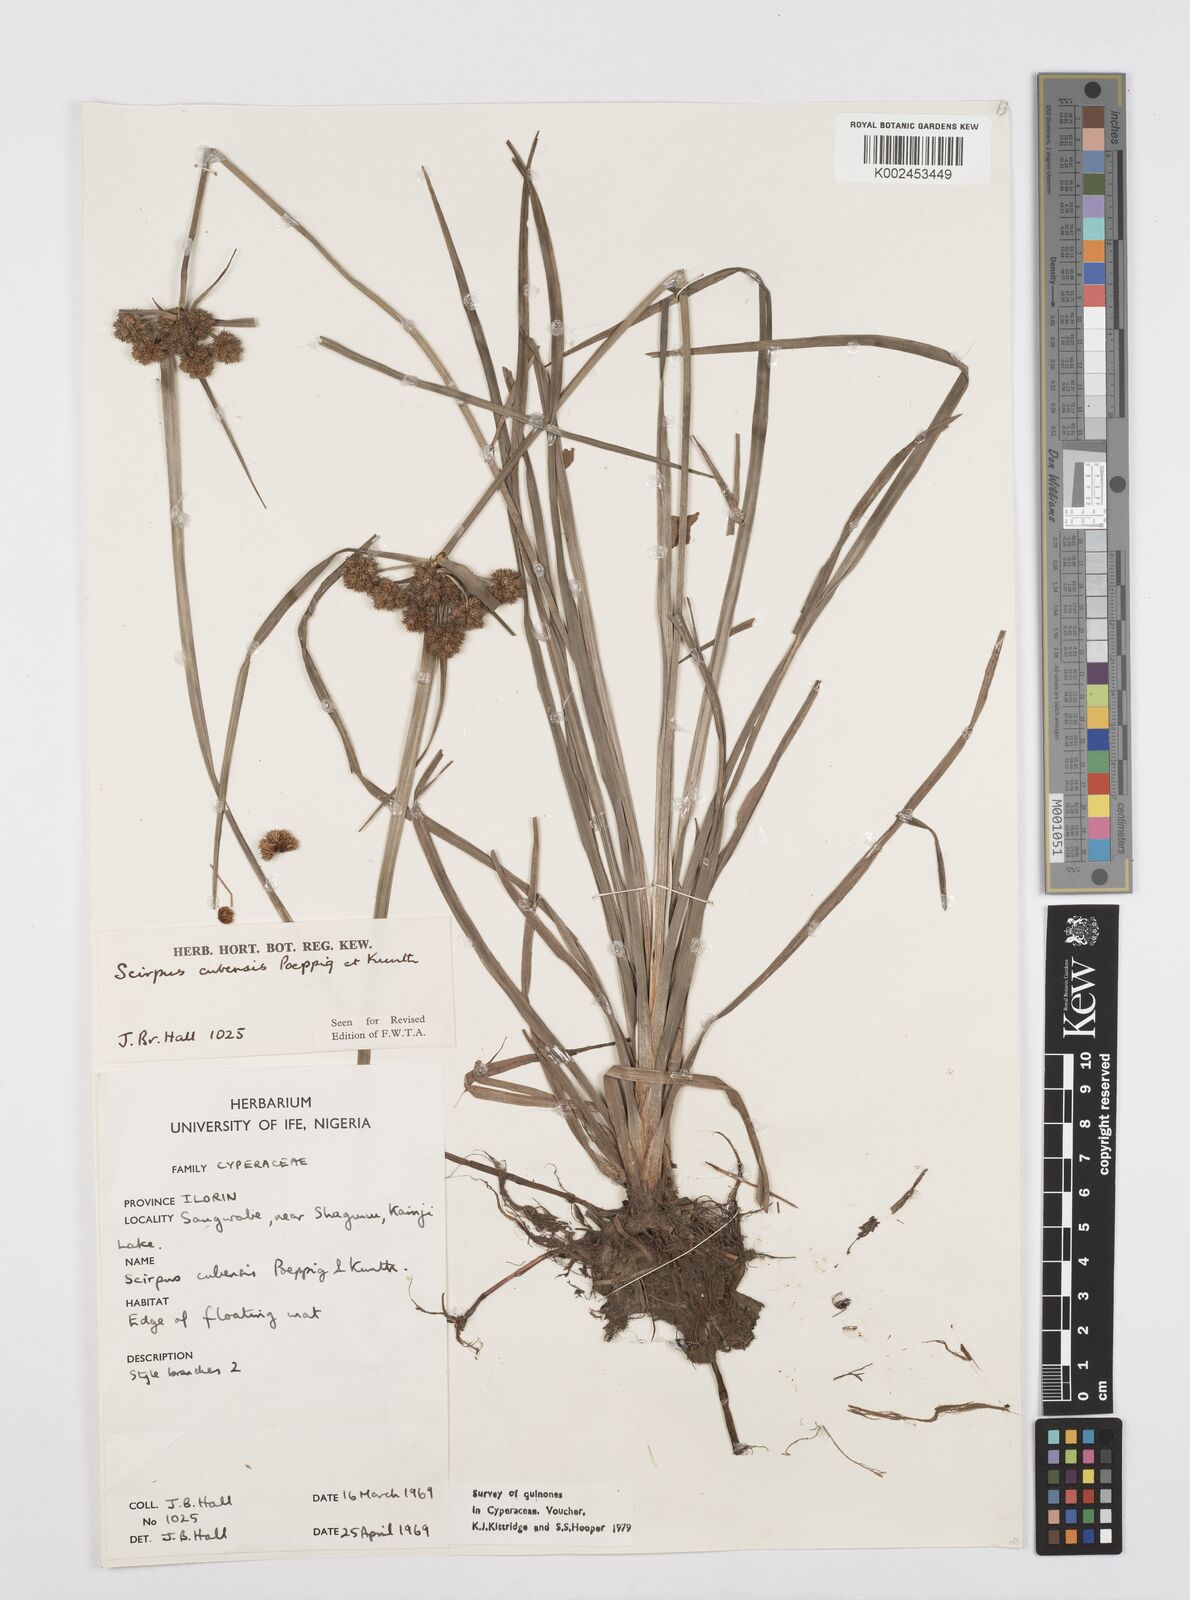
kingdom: Plantae
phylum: Tracheophyta
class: Liliopsida
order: Poales
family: Cyperaceae
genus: Cyperus
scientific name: Cyperus elegans
